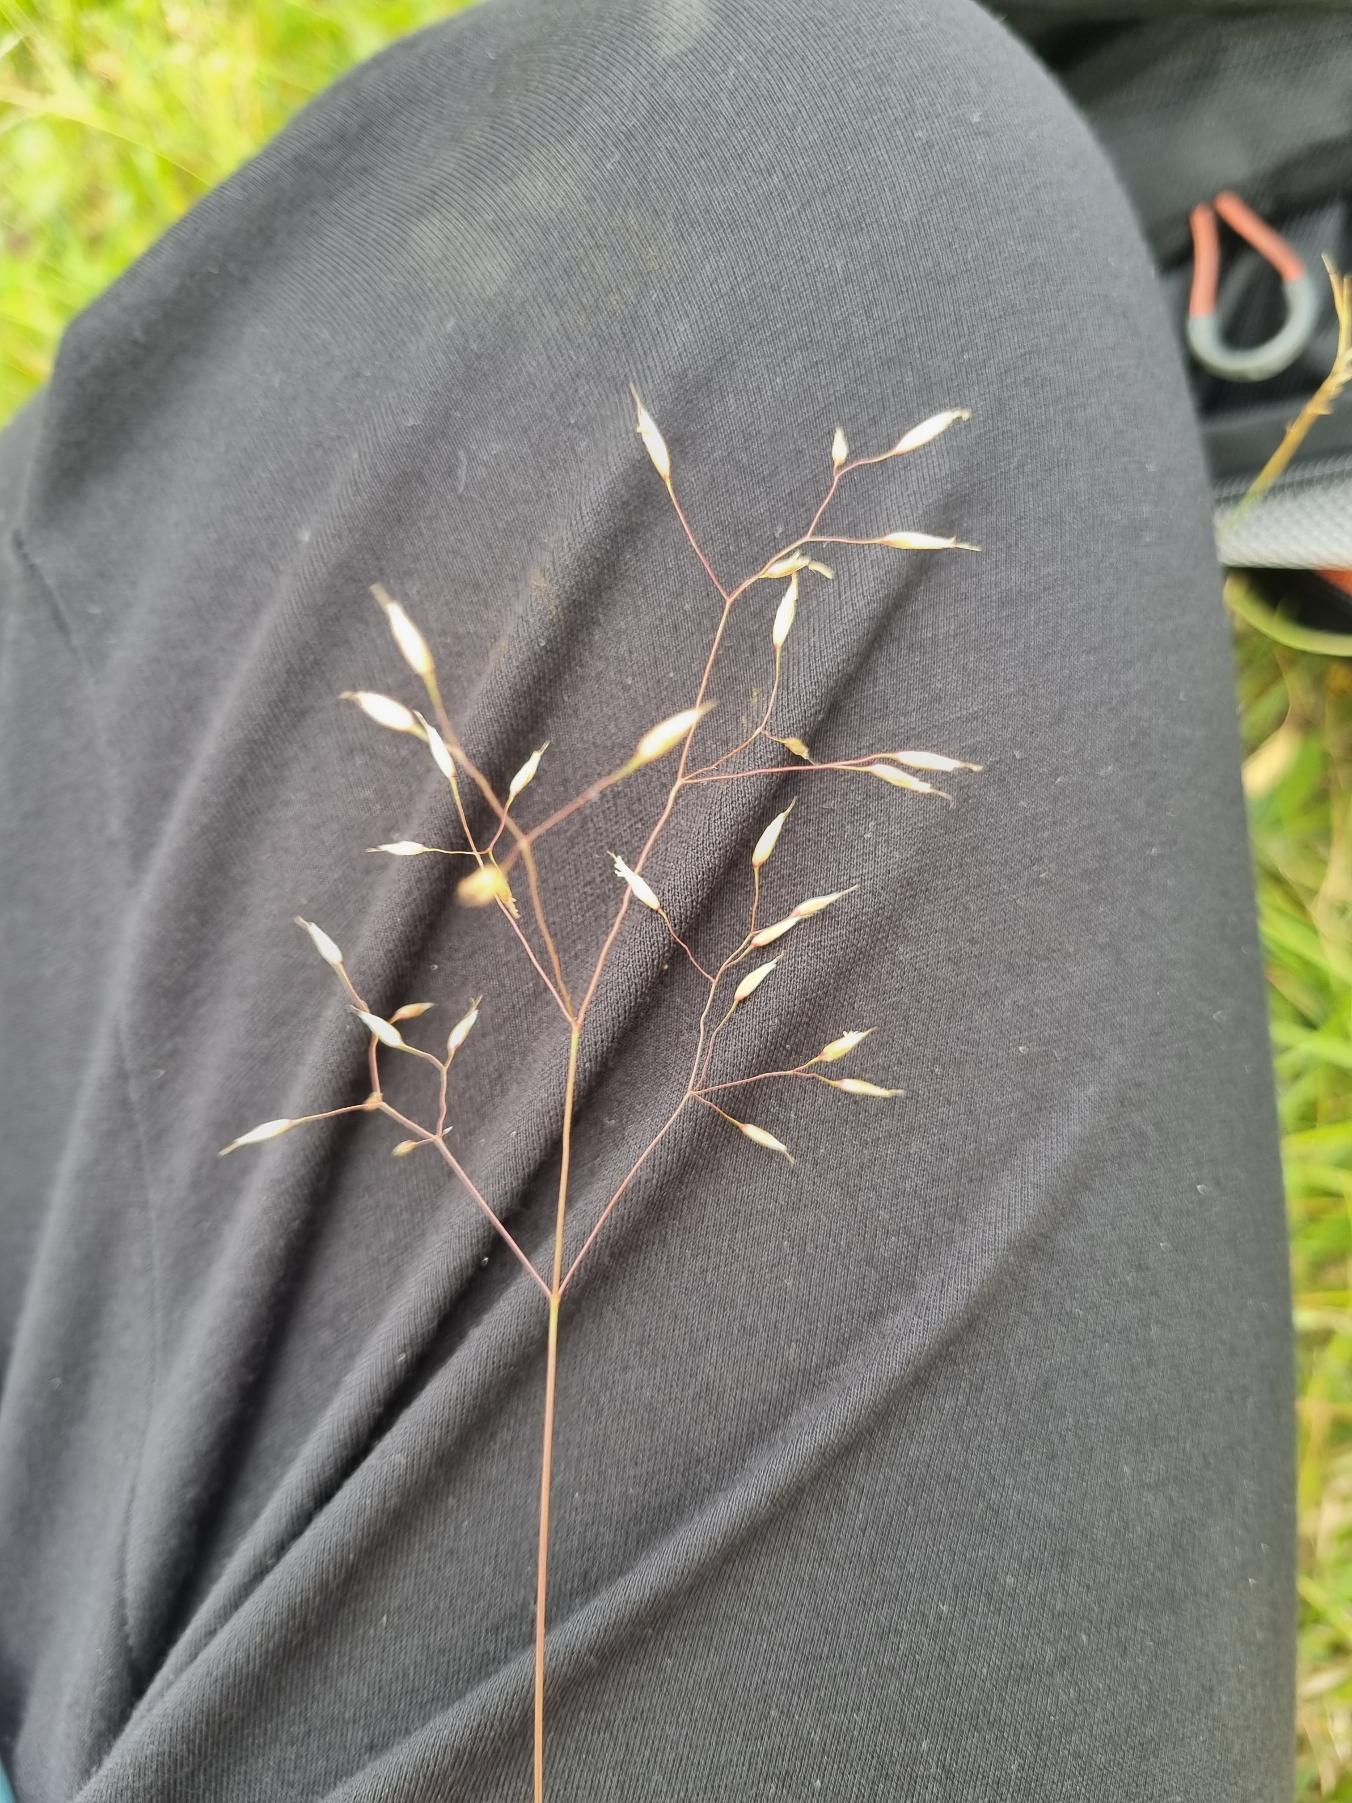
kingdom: Plantae
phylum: Tracheophyta
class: Liliopsida
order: Poales
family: Poaceae
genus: Avenella
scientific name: Avenella flexuosa
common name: Bølget bunke
